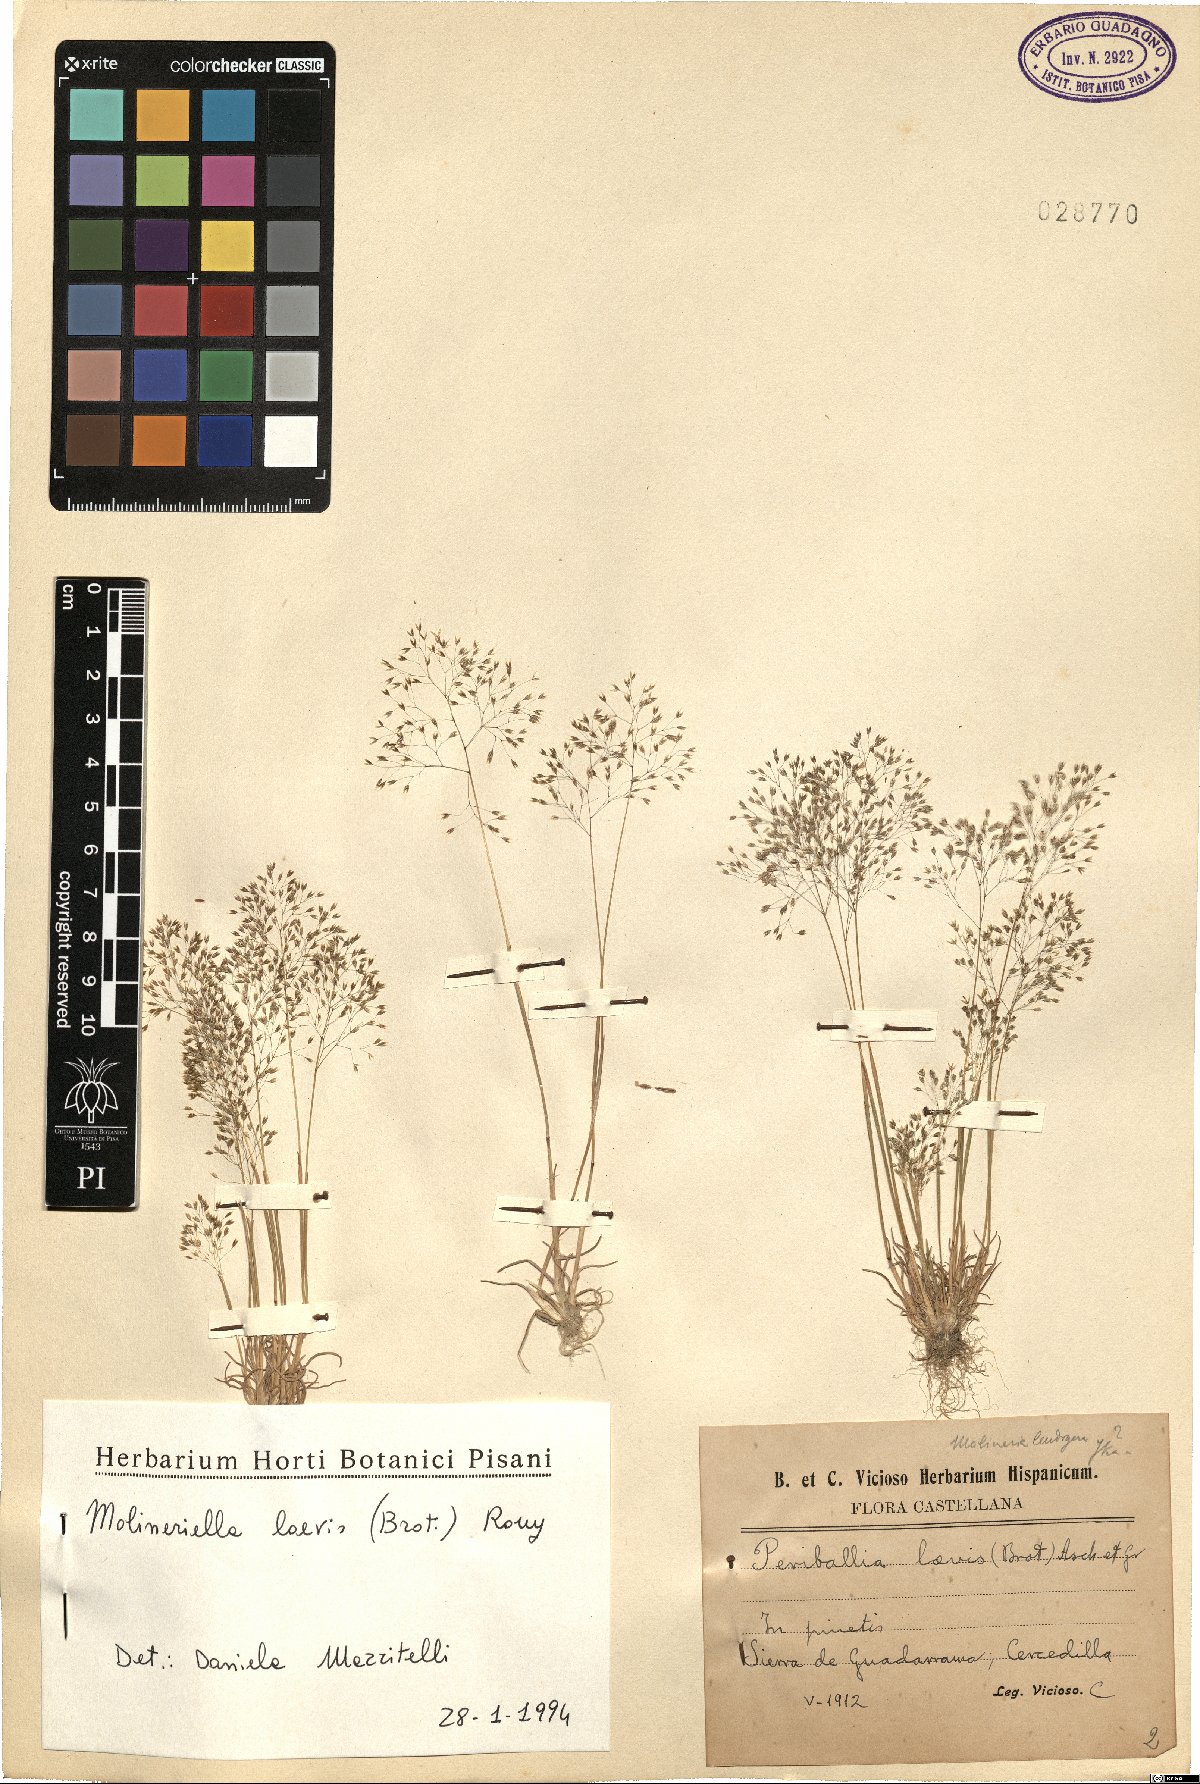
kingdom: Plantae
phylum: Tracheophyta
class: Liliopsida
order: Poales
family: Poaceae
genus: Molineriella
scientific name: Molineriella laevis
